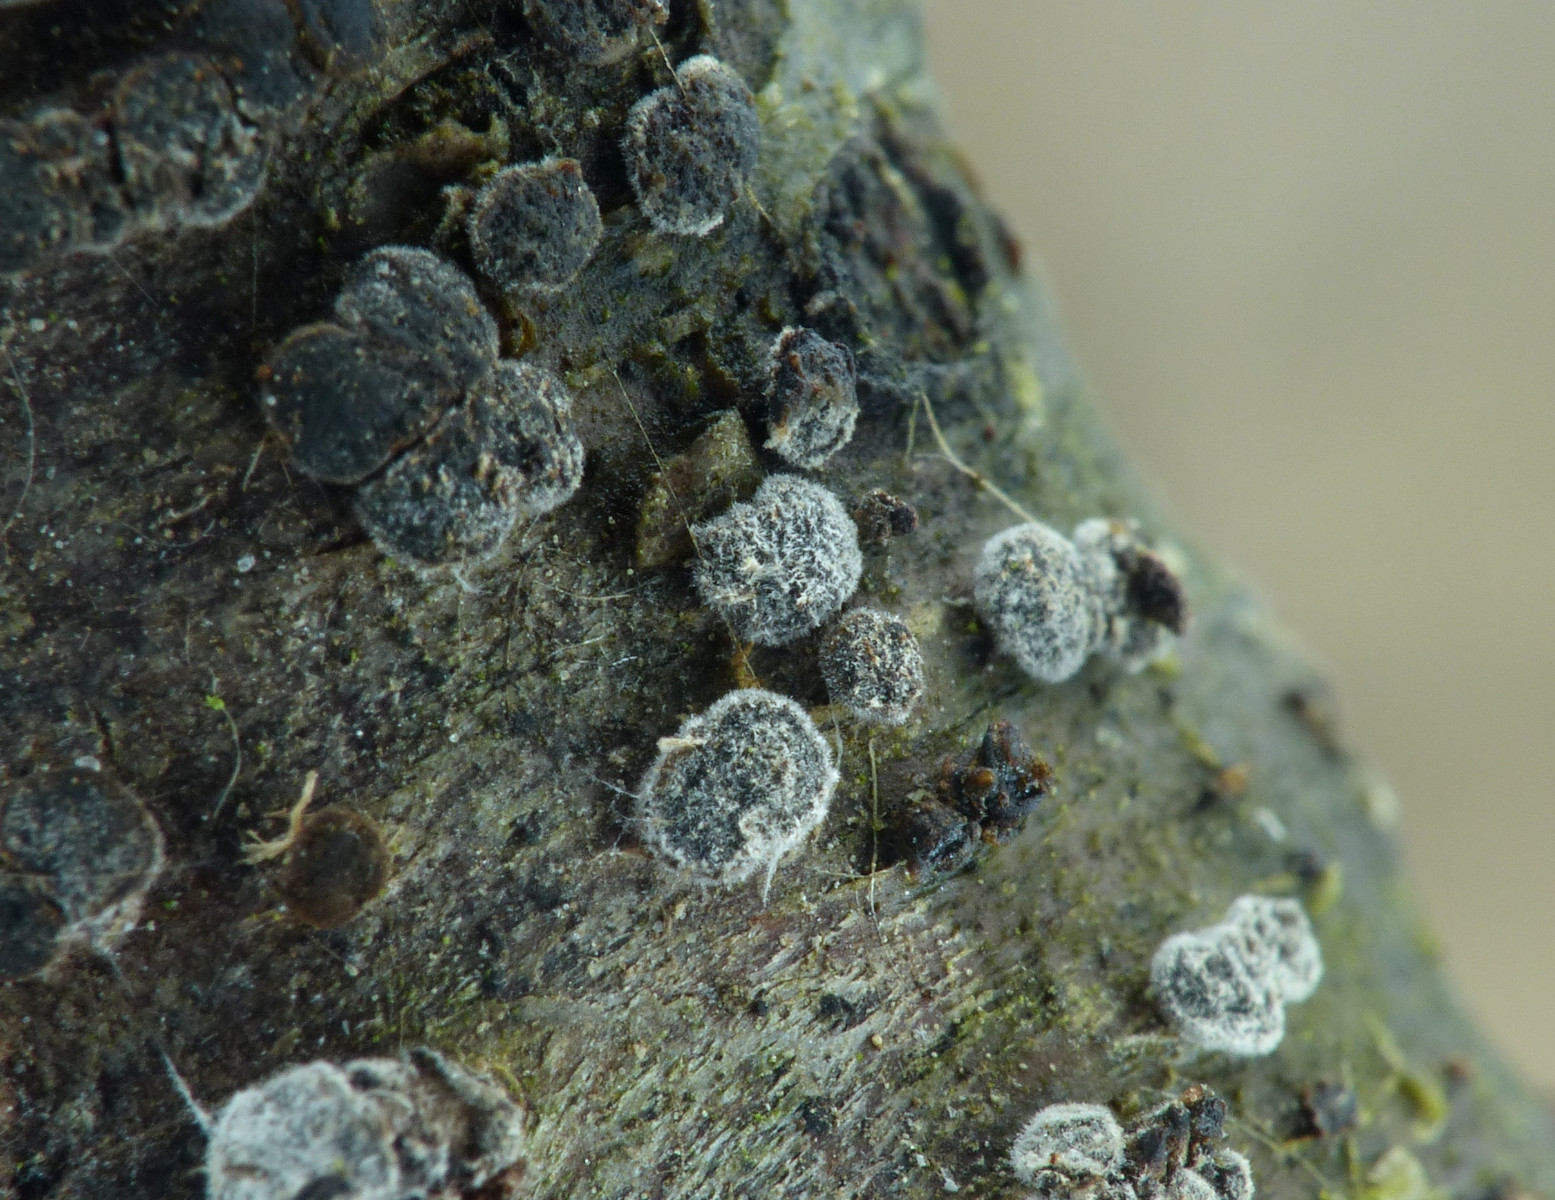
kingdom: Fungi
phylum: Ascomycota
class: Leotiomycetes
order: Helotiales
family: Dermateaceae
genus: Dermea
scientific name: Dermea cerasi
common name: kirsebær-klyngeskive
